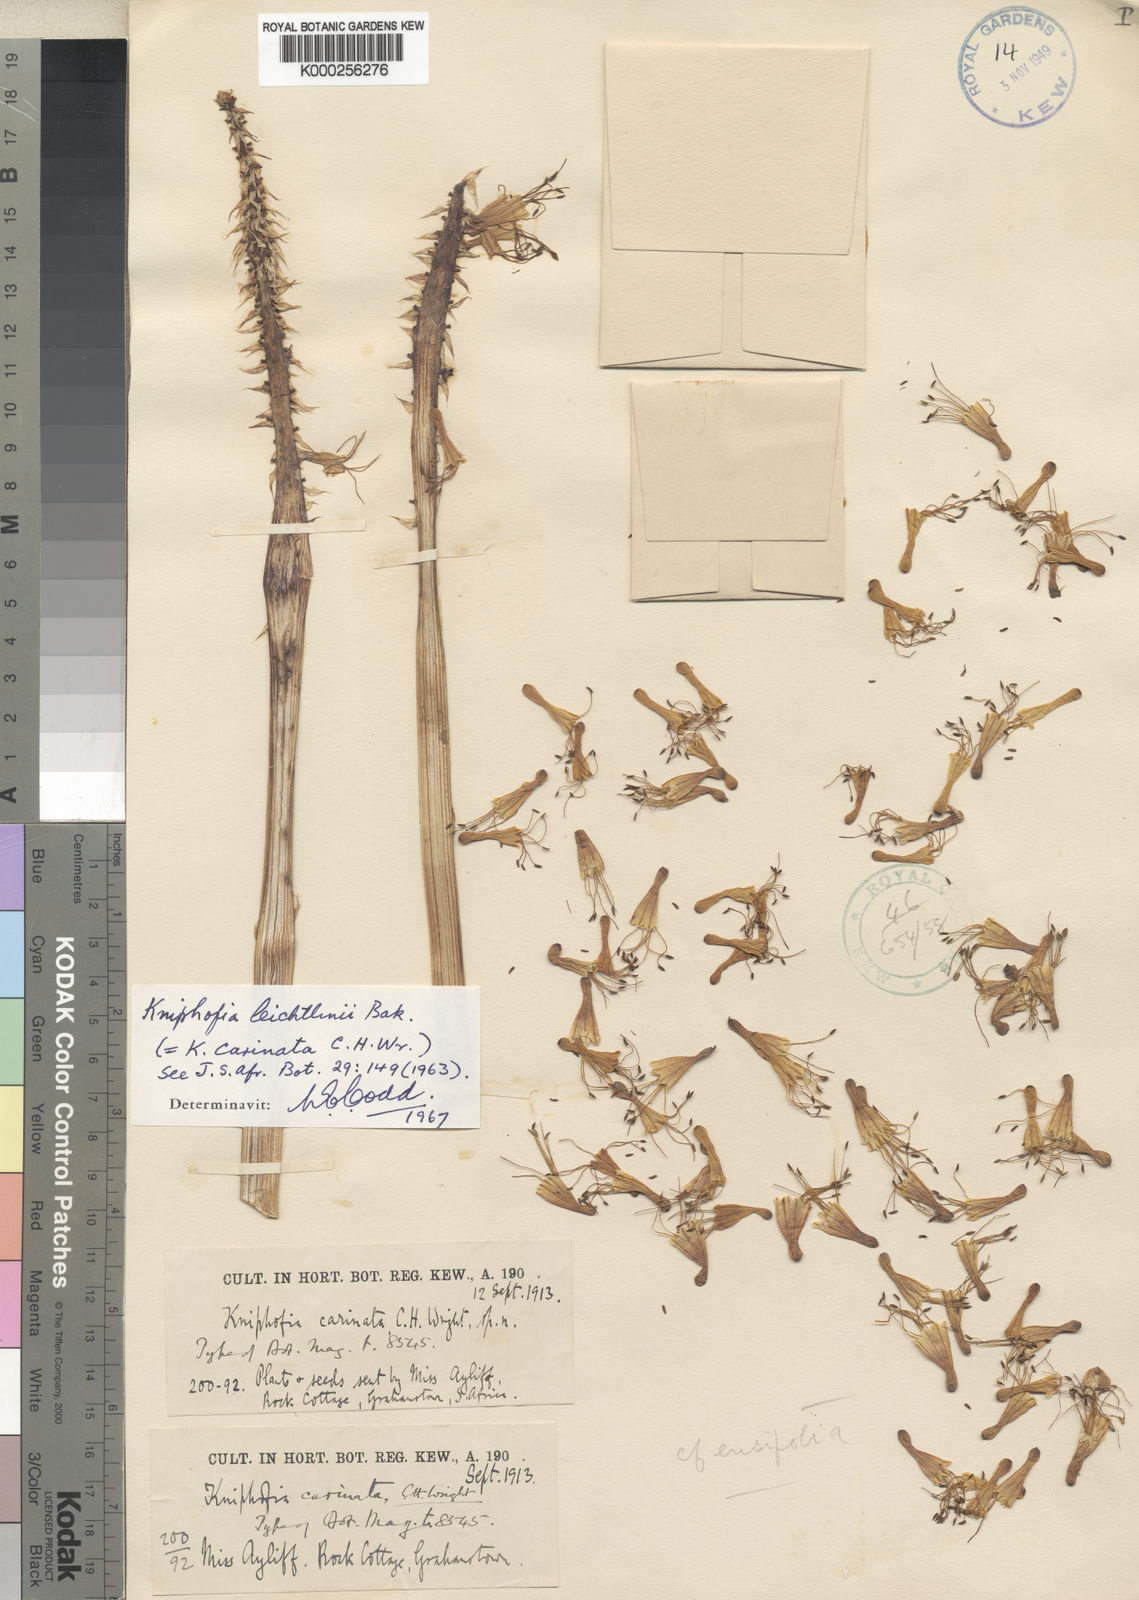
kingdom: Plantae
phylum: Tracheophyta
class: Liliopsida
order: Asparagales
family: Asphodelaceae
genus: Kniphofia
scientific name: Kniphofia pumila
